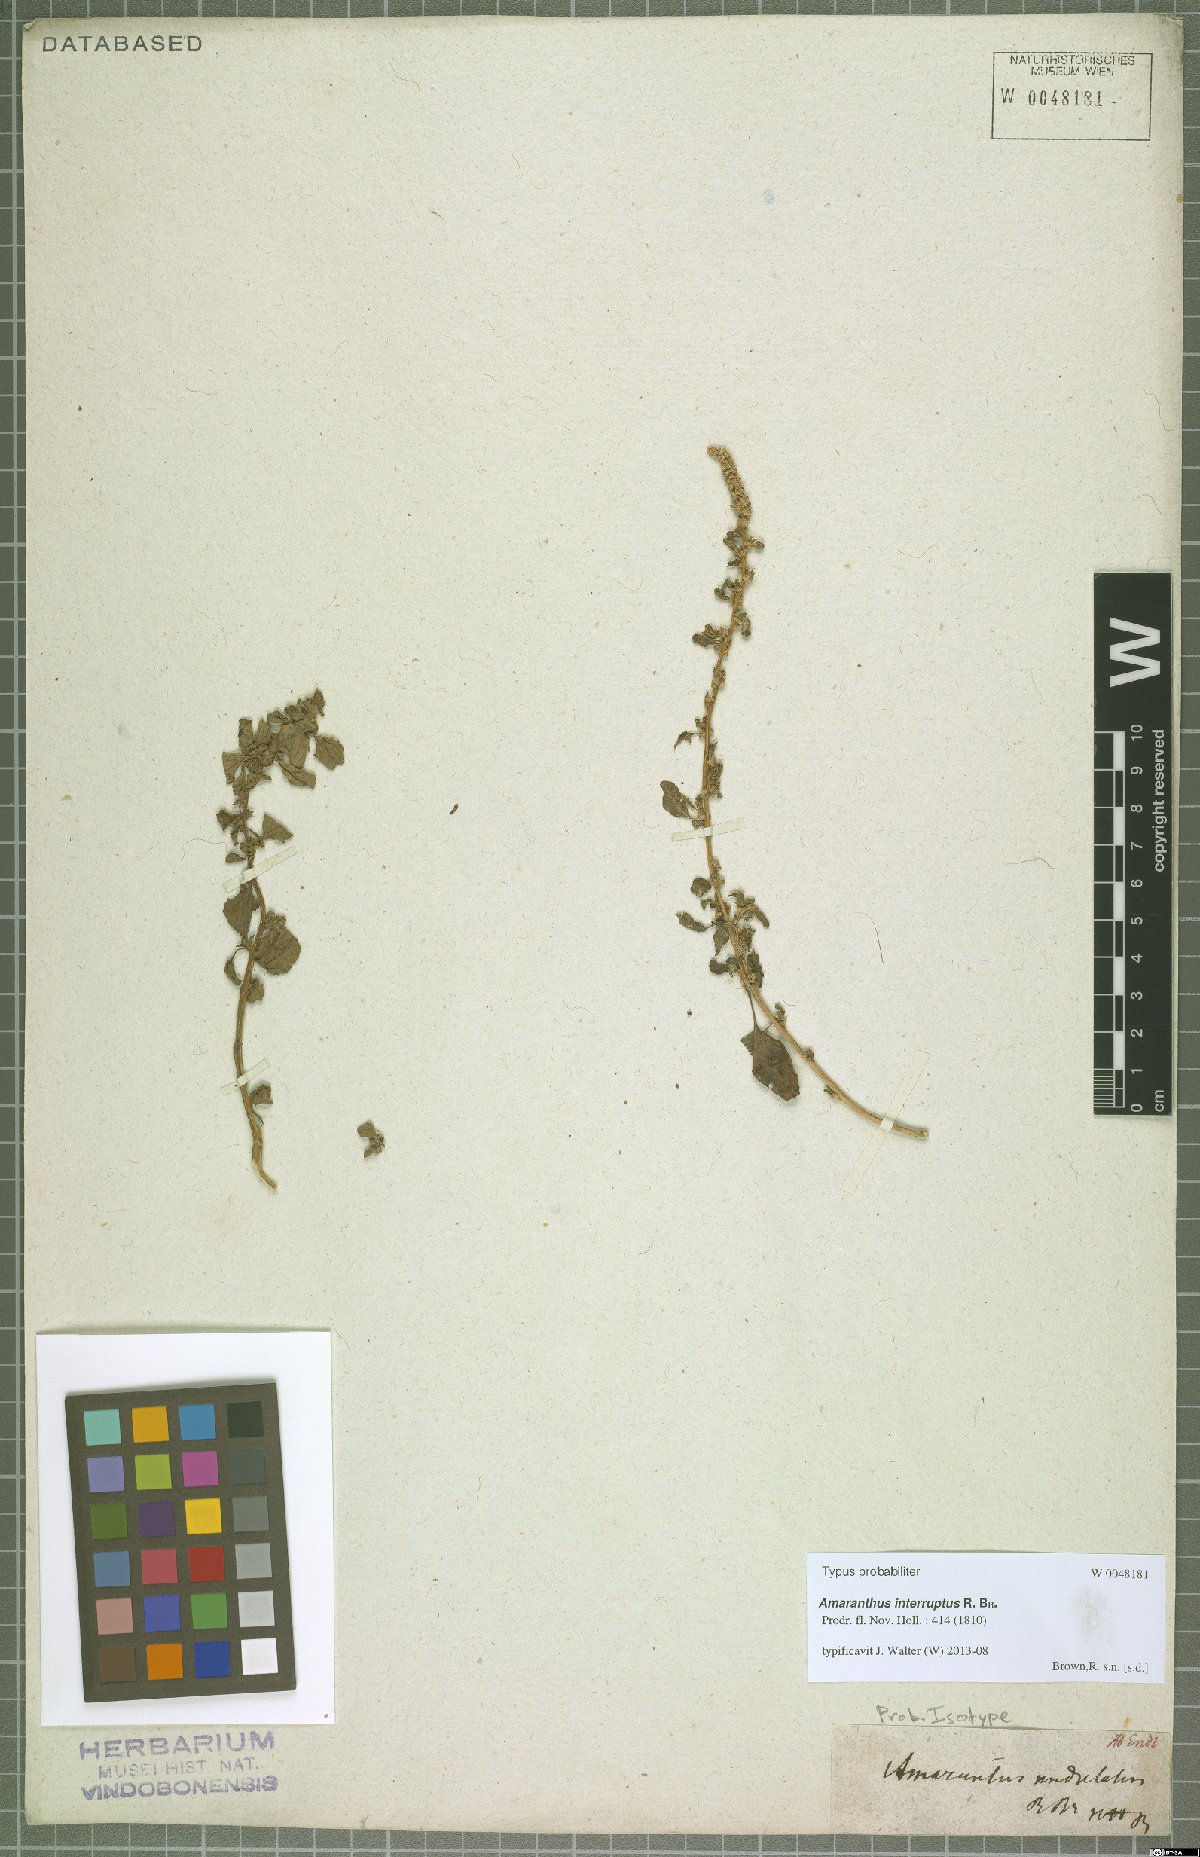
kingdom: Plantae
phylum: Tracheophyta
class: Magnoliopsida
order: Caryophyllales
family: Amaranthaceae
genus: Amaranthus
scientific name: Amaranthus interruptus
